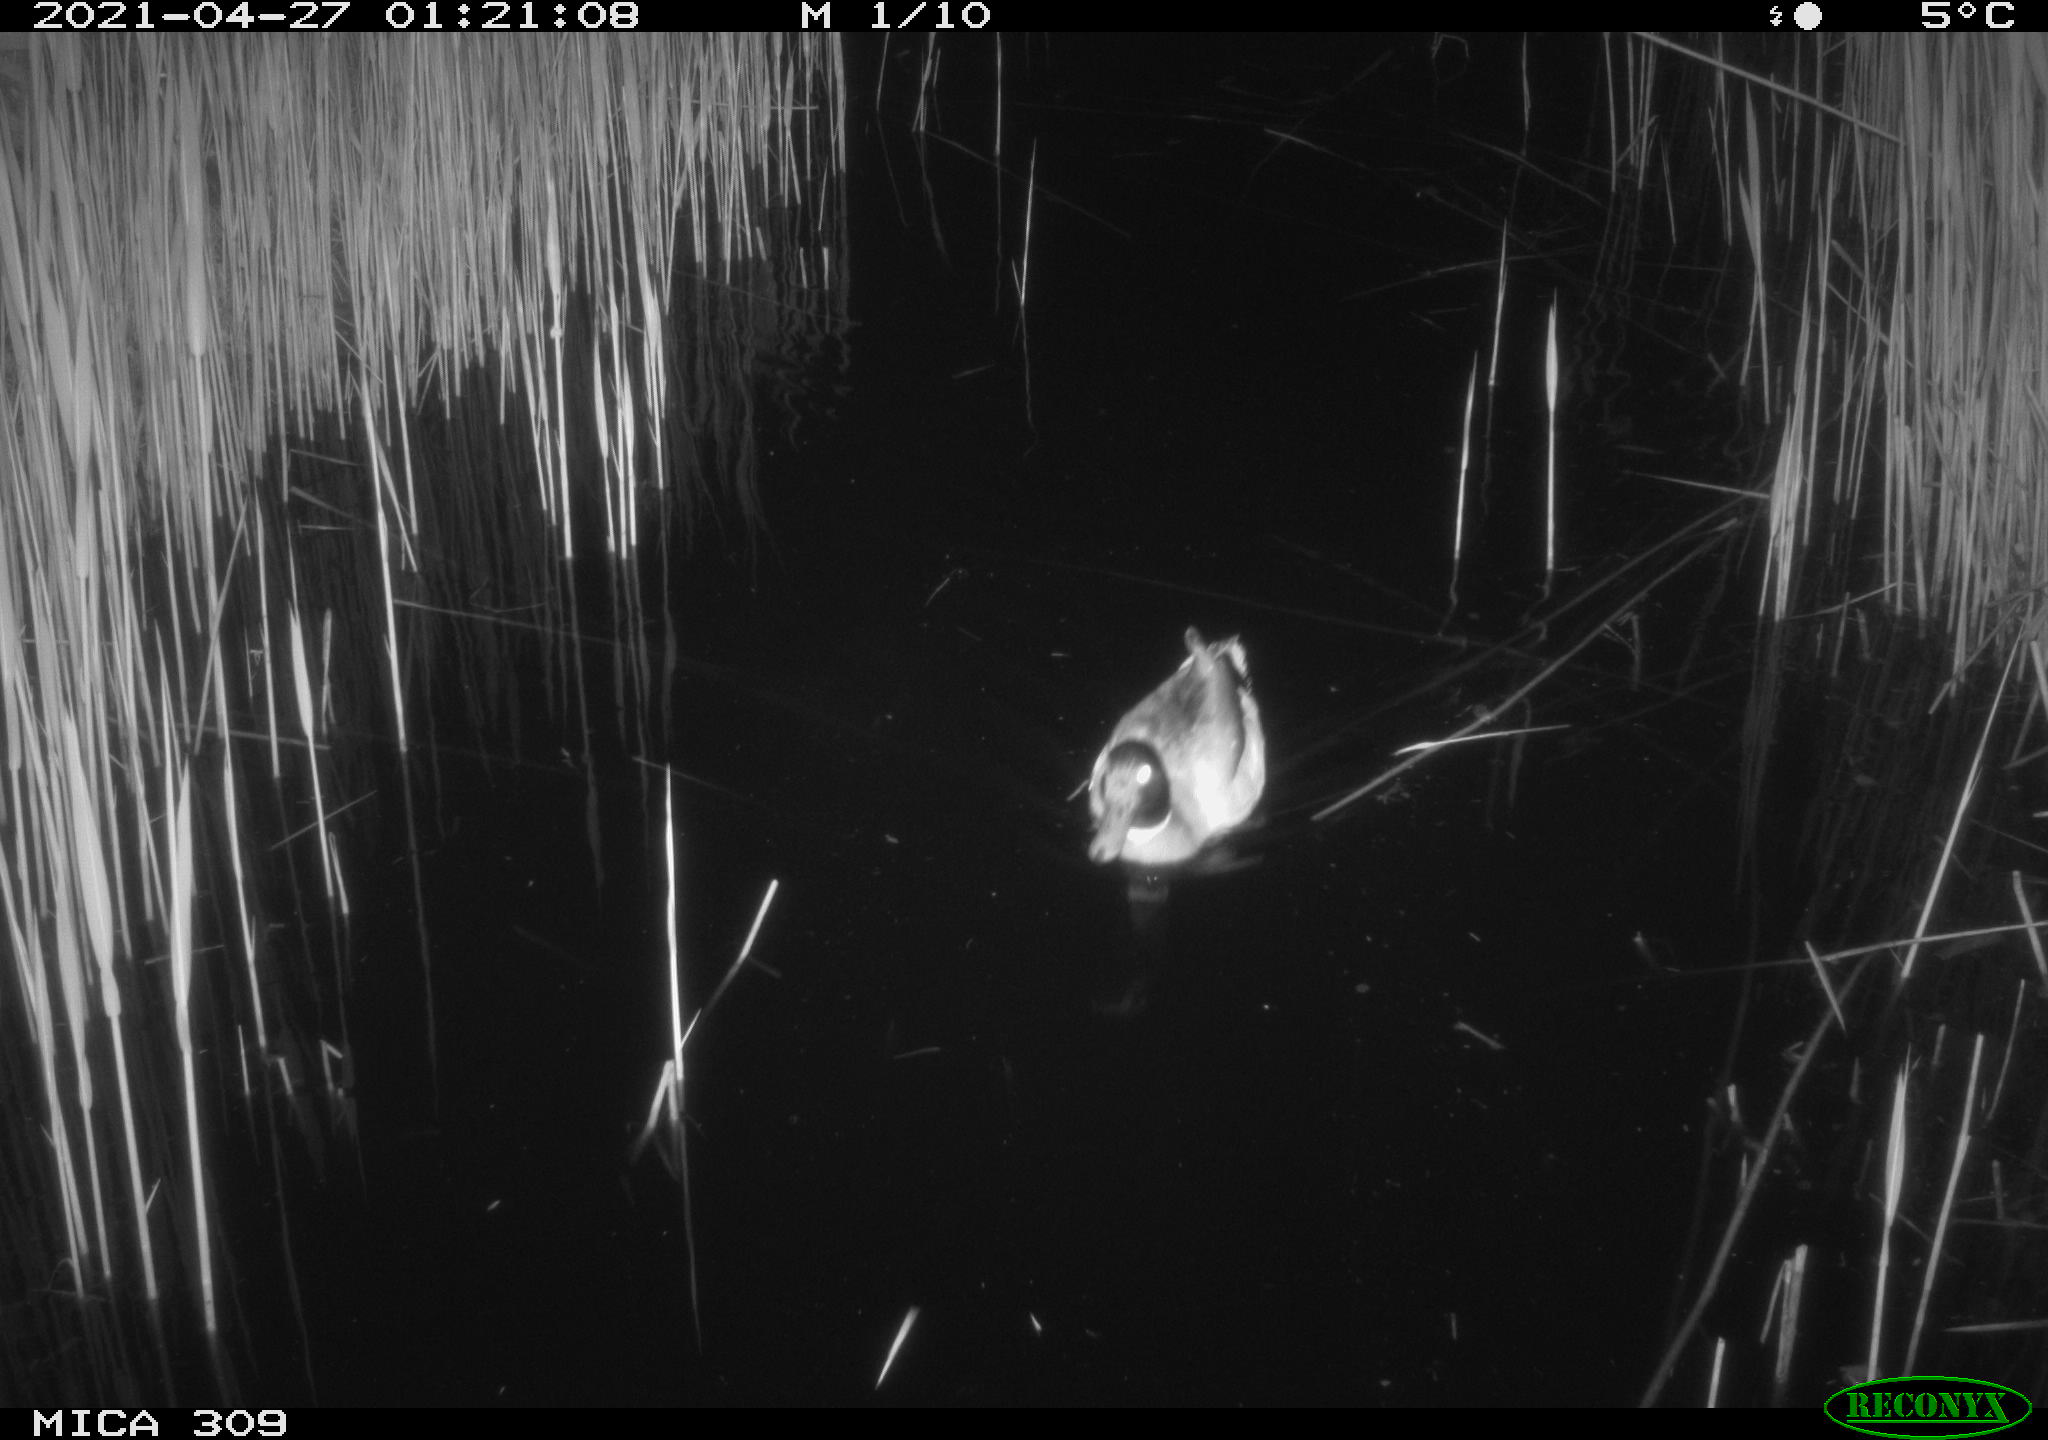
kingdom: Animalia
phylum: Chordata
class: Aves
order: Anseriformes
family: Anatidae
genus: Anas
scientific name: Anas platyrhynchos
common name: Mallard
